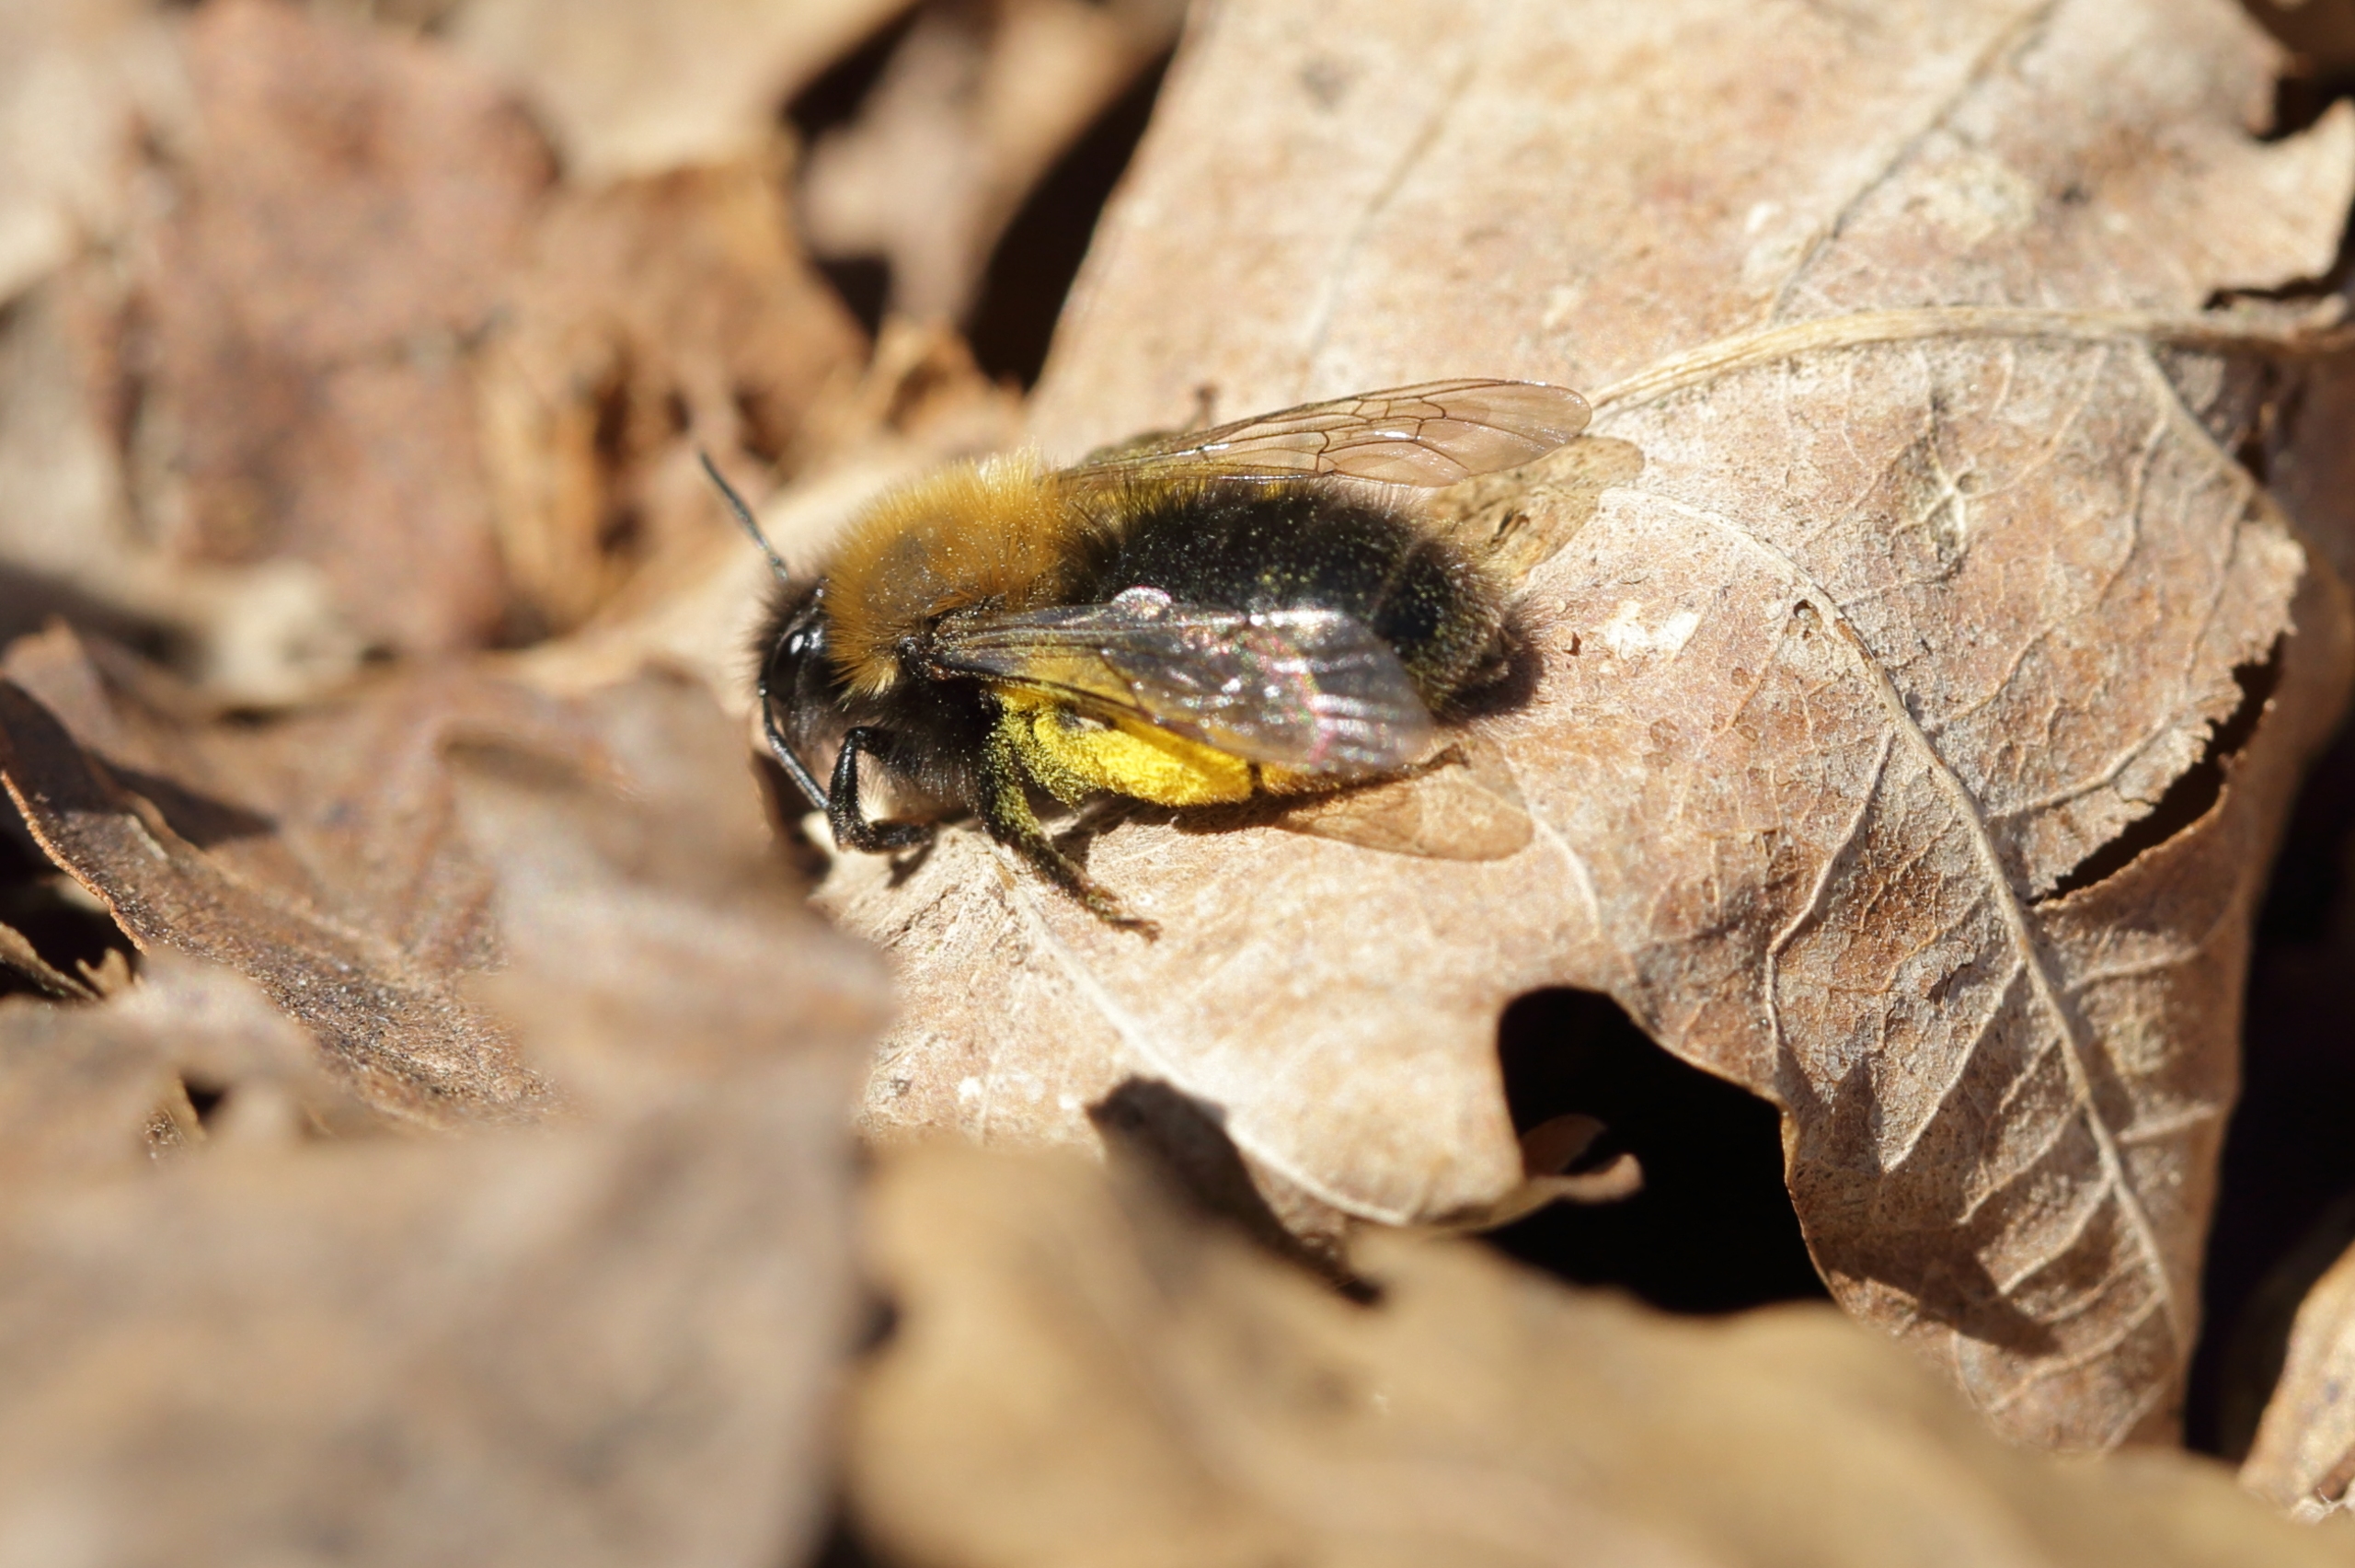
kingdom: Animalia
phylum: Arthropoda
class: Insecta
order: Hymenoptera
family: Andrenidae
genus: Andrena
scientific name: Andrena clarkella
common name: Rødbrystet jordbi
